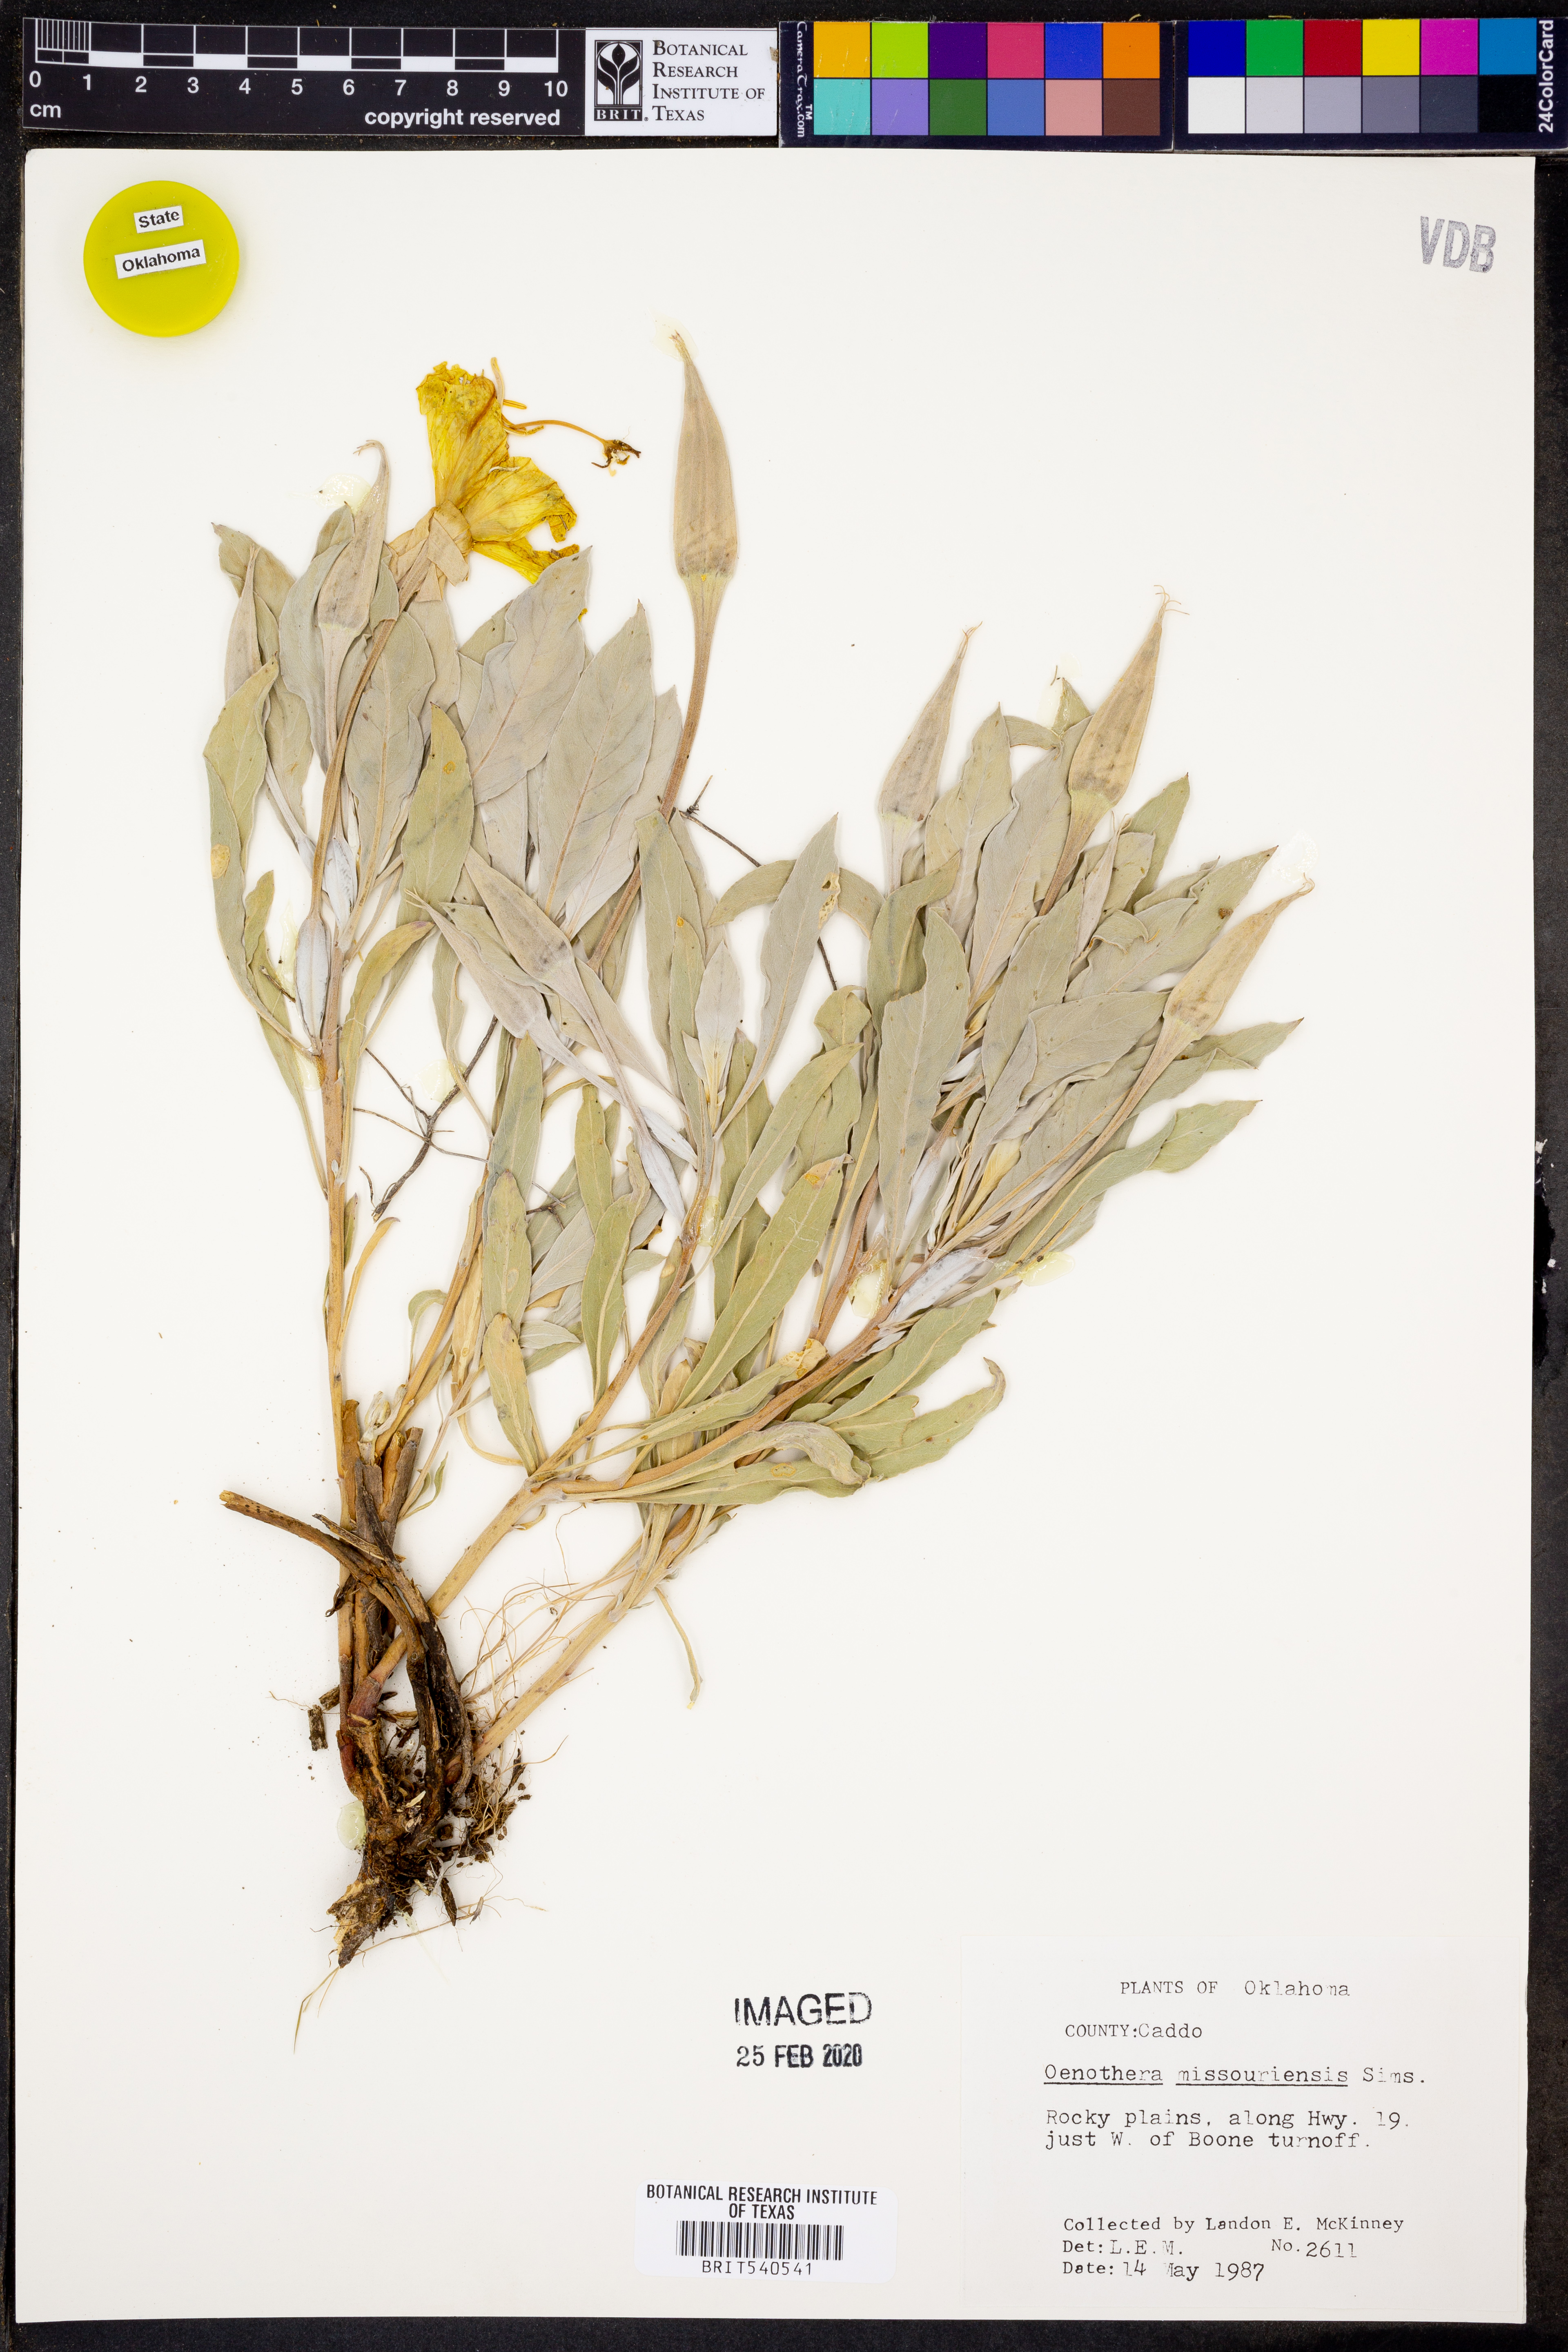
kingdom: Plantae
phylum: Tracheophyta
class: Magnoliopsida
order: Myrtales
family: Onagraceae
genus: Oenothera
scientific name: Oenothera macrocarpa
